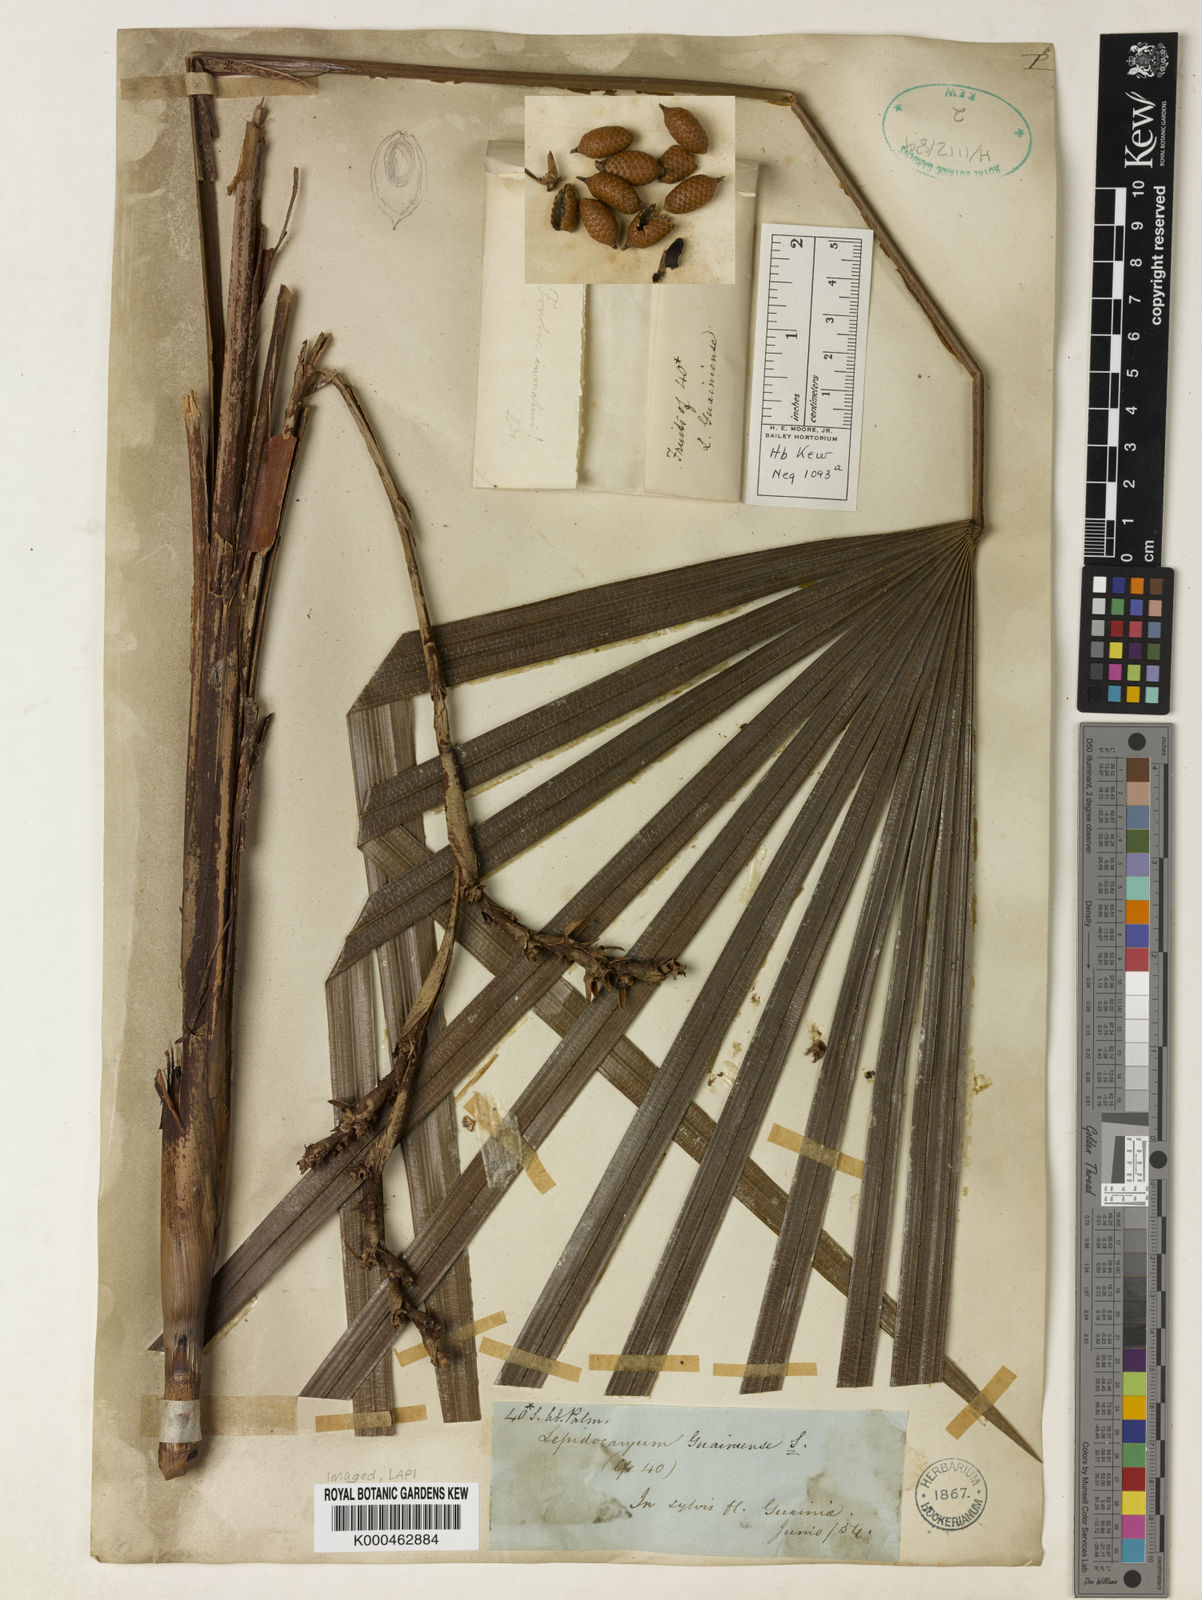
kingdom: Plantae
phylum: Tracheophyta
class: Liliopsida
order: Arecales
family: Arecaceae
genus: Lepidocaryum
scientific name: Lepidocaryum tenue
